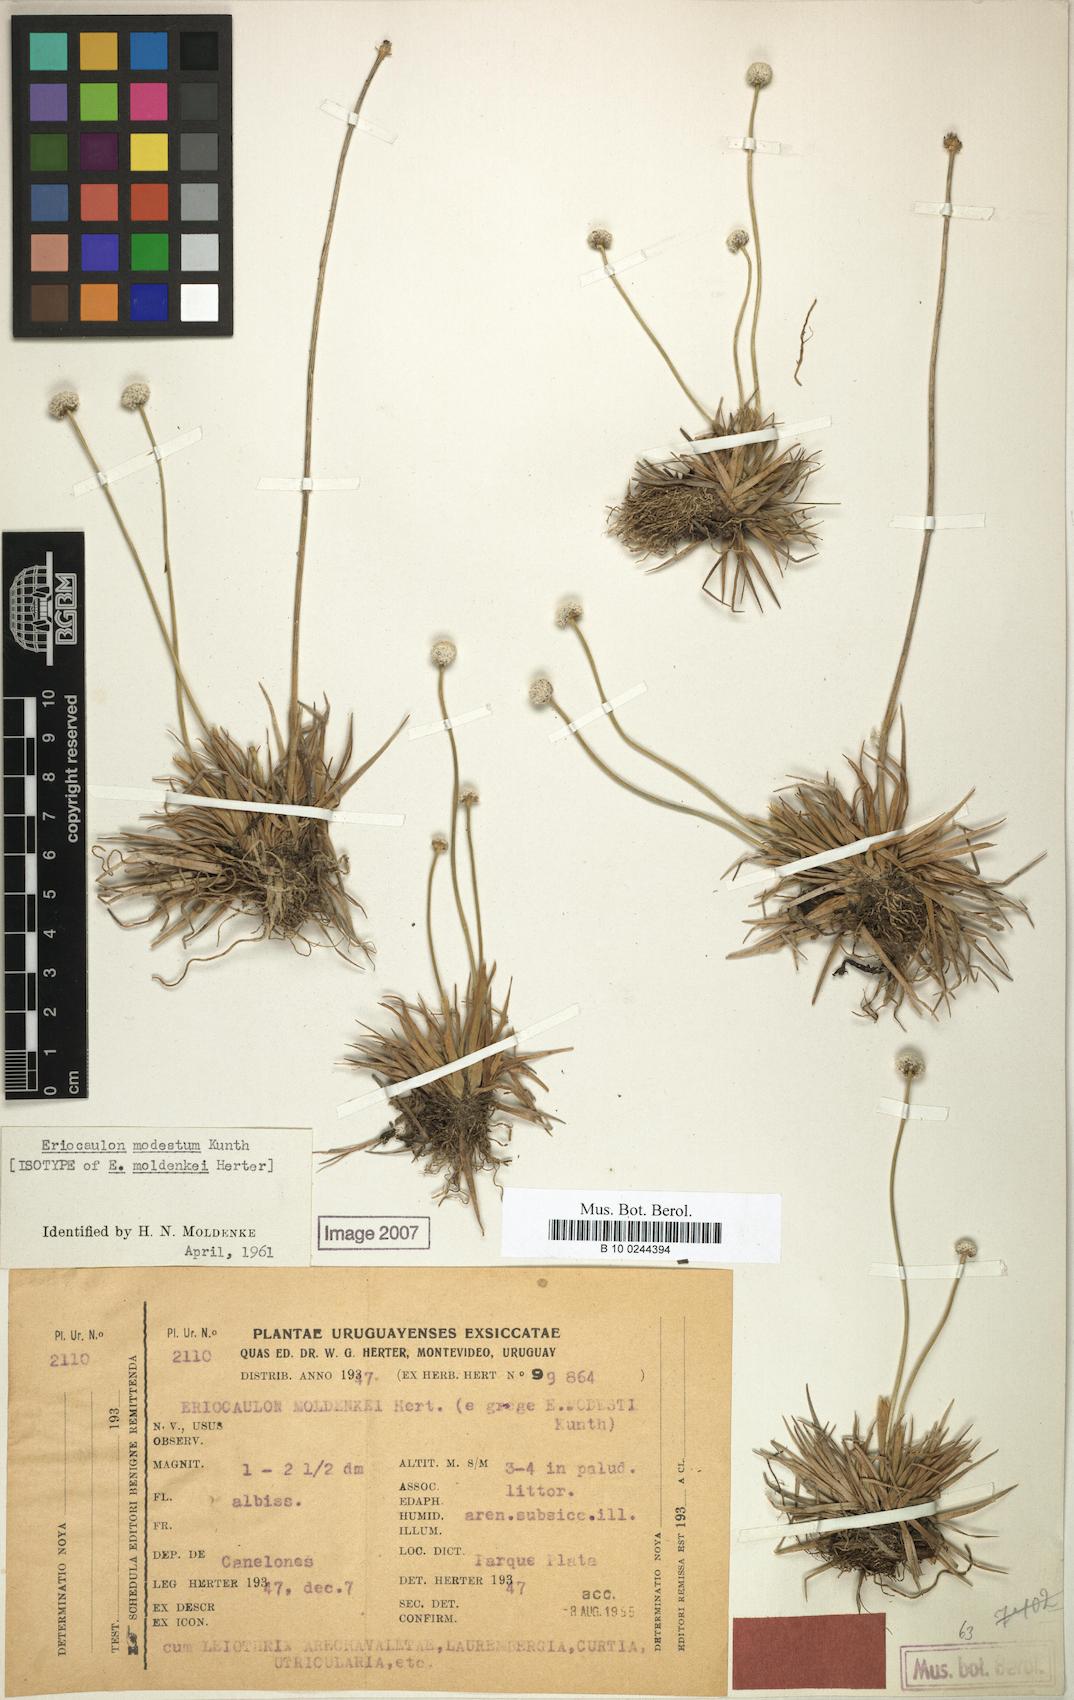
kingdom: Plantae
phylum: Tracheophyta
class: Liliopsida
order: Poales
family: Eriocaulaceae
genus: Eriocaulon
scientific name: Eriocaulon modestum
